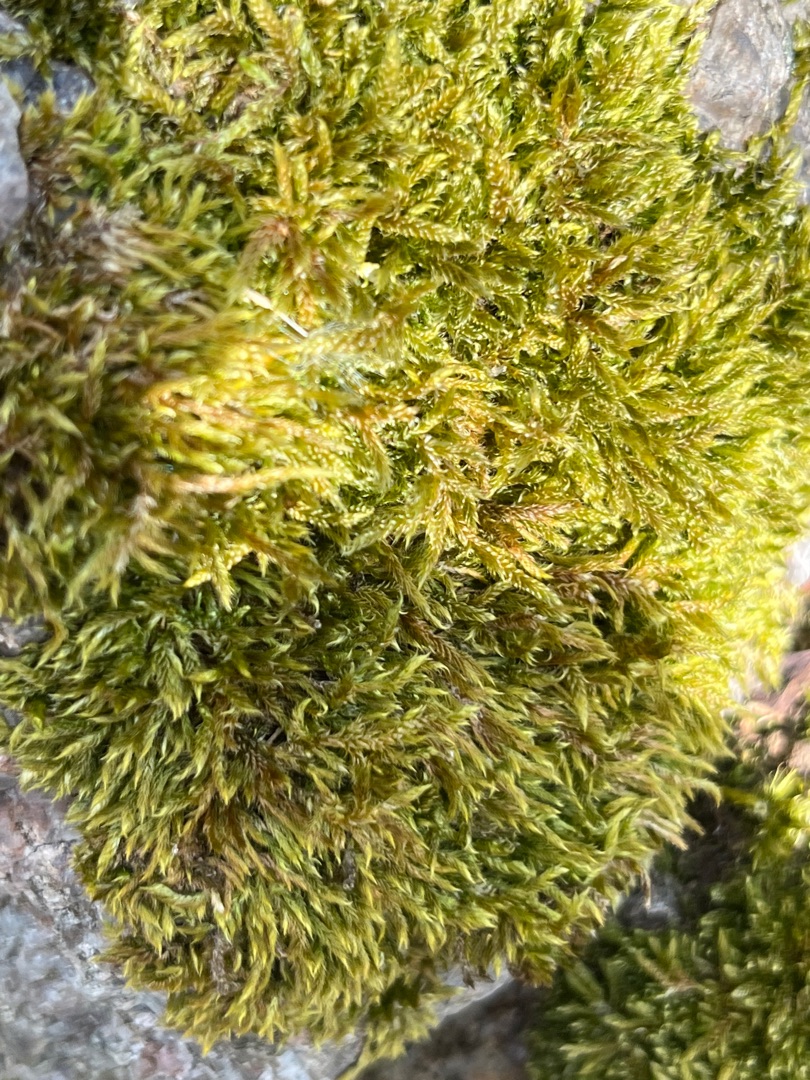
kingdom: Plantae
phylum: Bryophyta
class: Bryopsida
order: Hypnales
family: Hypnaceae
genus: Hypnum
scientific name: Hypnum cupressiforme
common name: Almindelig cypresmos
